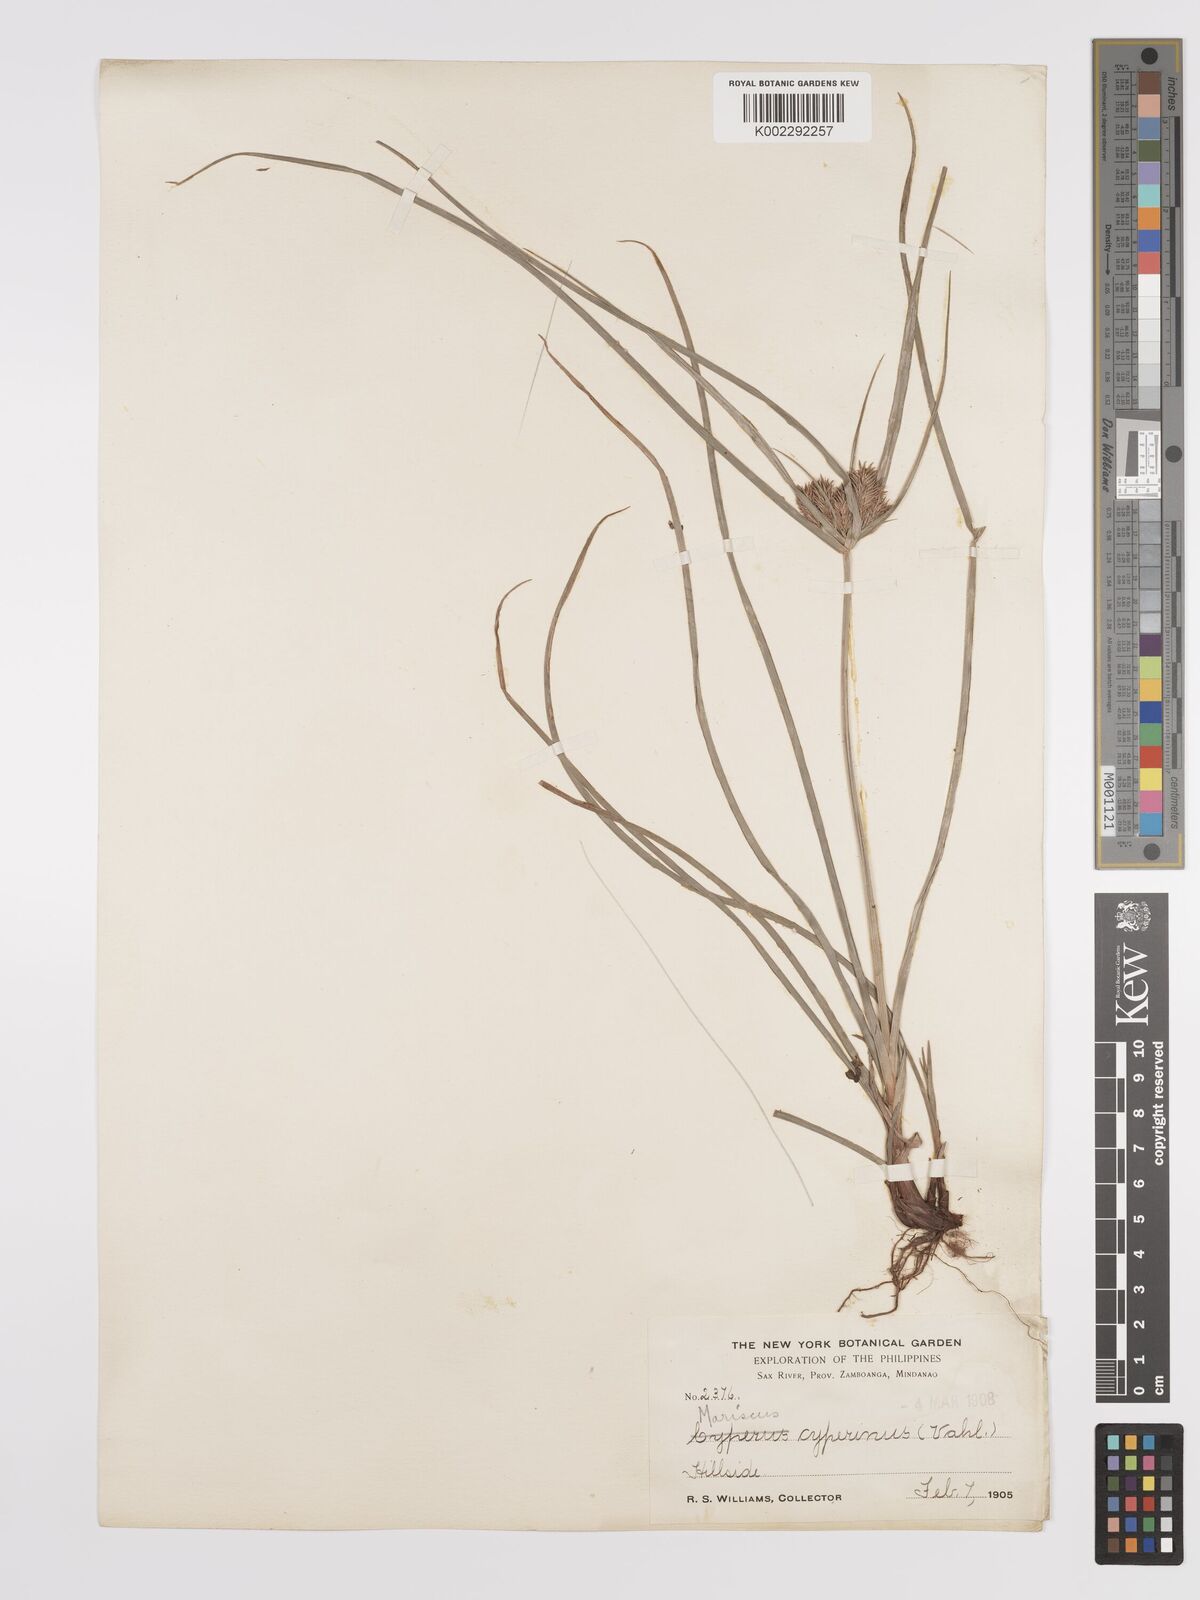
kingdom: Plantae
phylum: Tracheophyta
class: Liliopsida
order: Poales
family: Cyperaceae
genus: Cyperus
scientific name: Cyperus cyperinus
